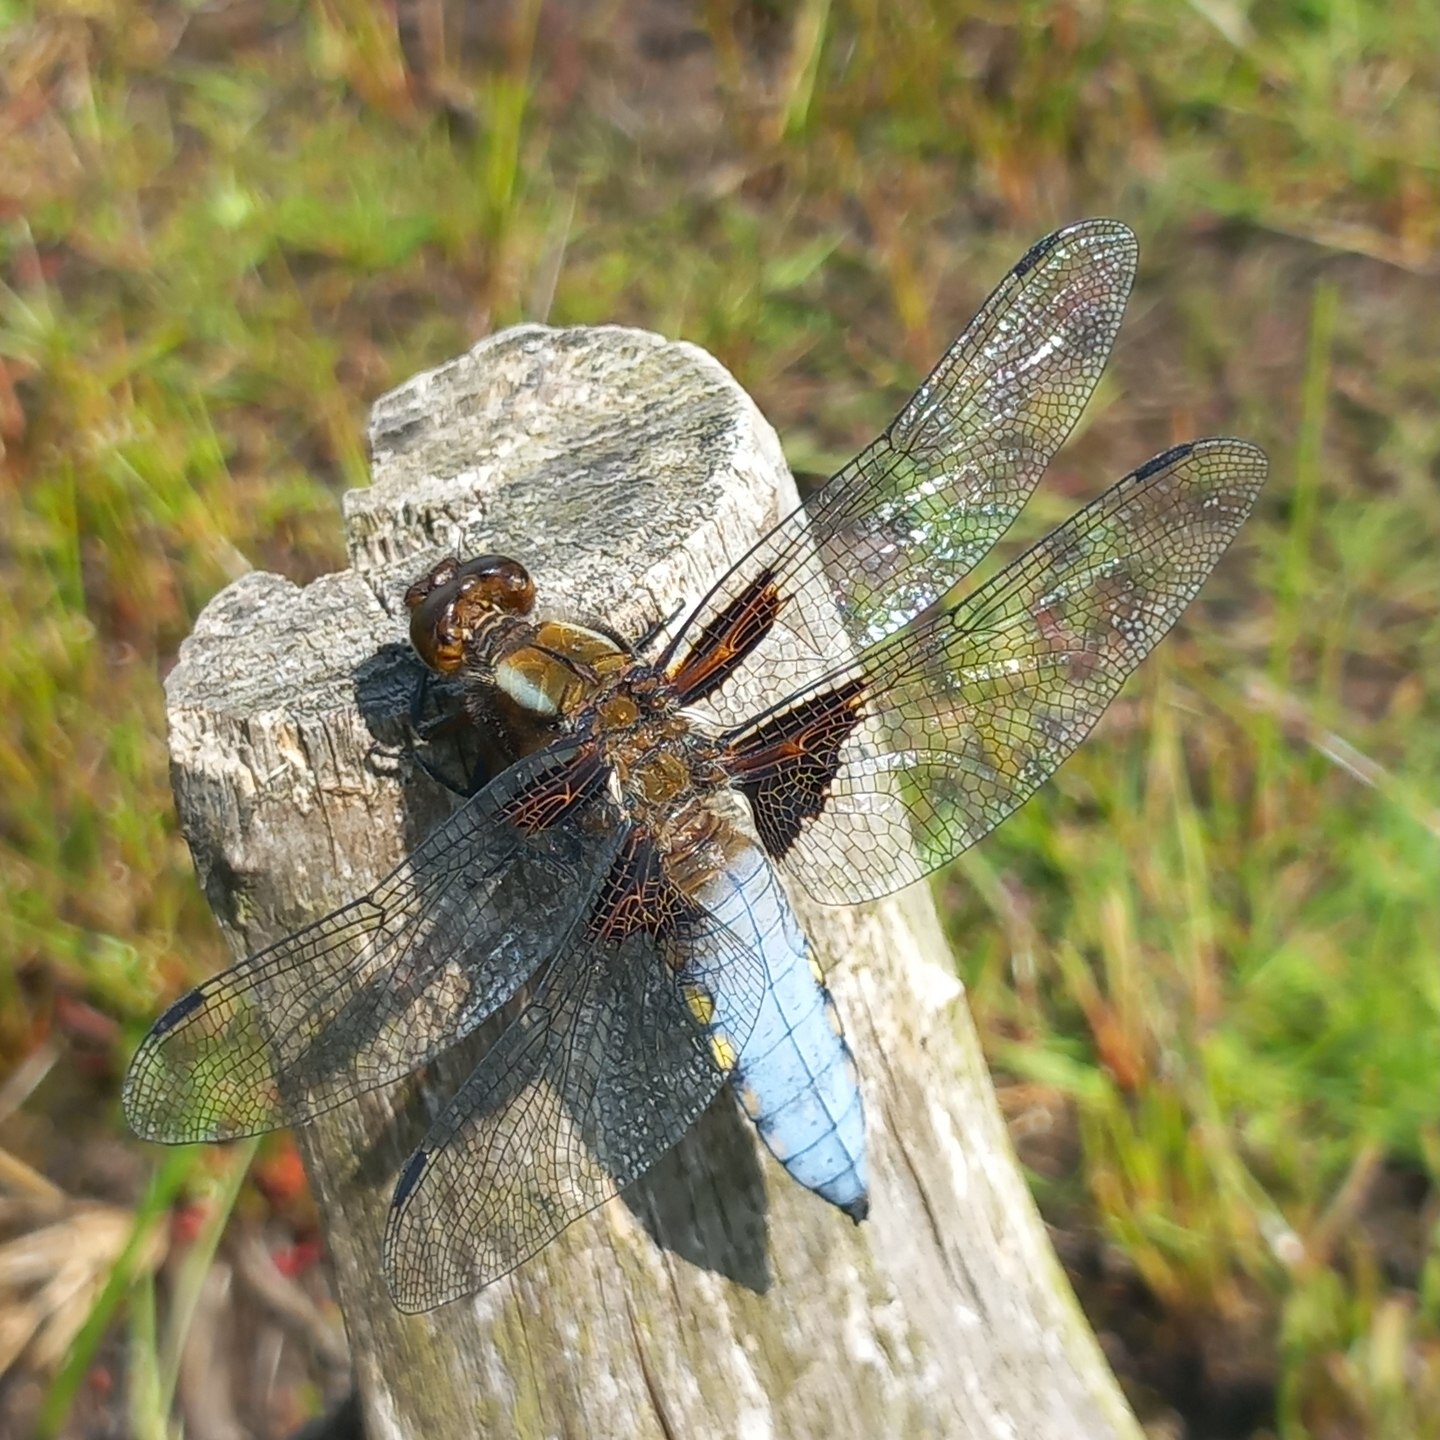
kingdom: Animalia
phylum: Arthropoda
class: Insecta
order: Odonata
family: Libellulidae
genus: Libellula
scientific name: Libellula depressa
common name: Blå libel
